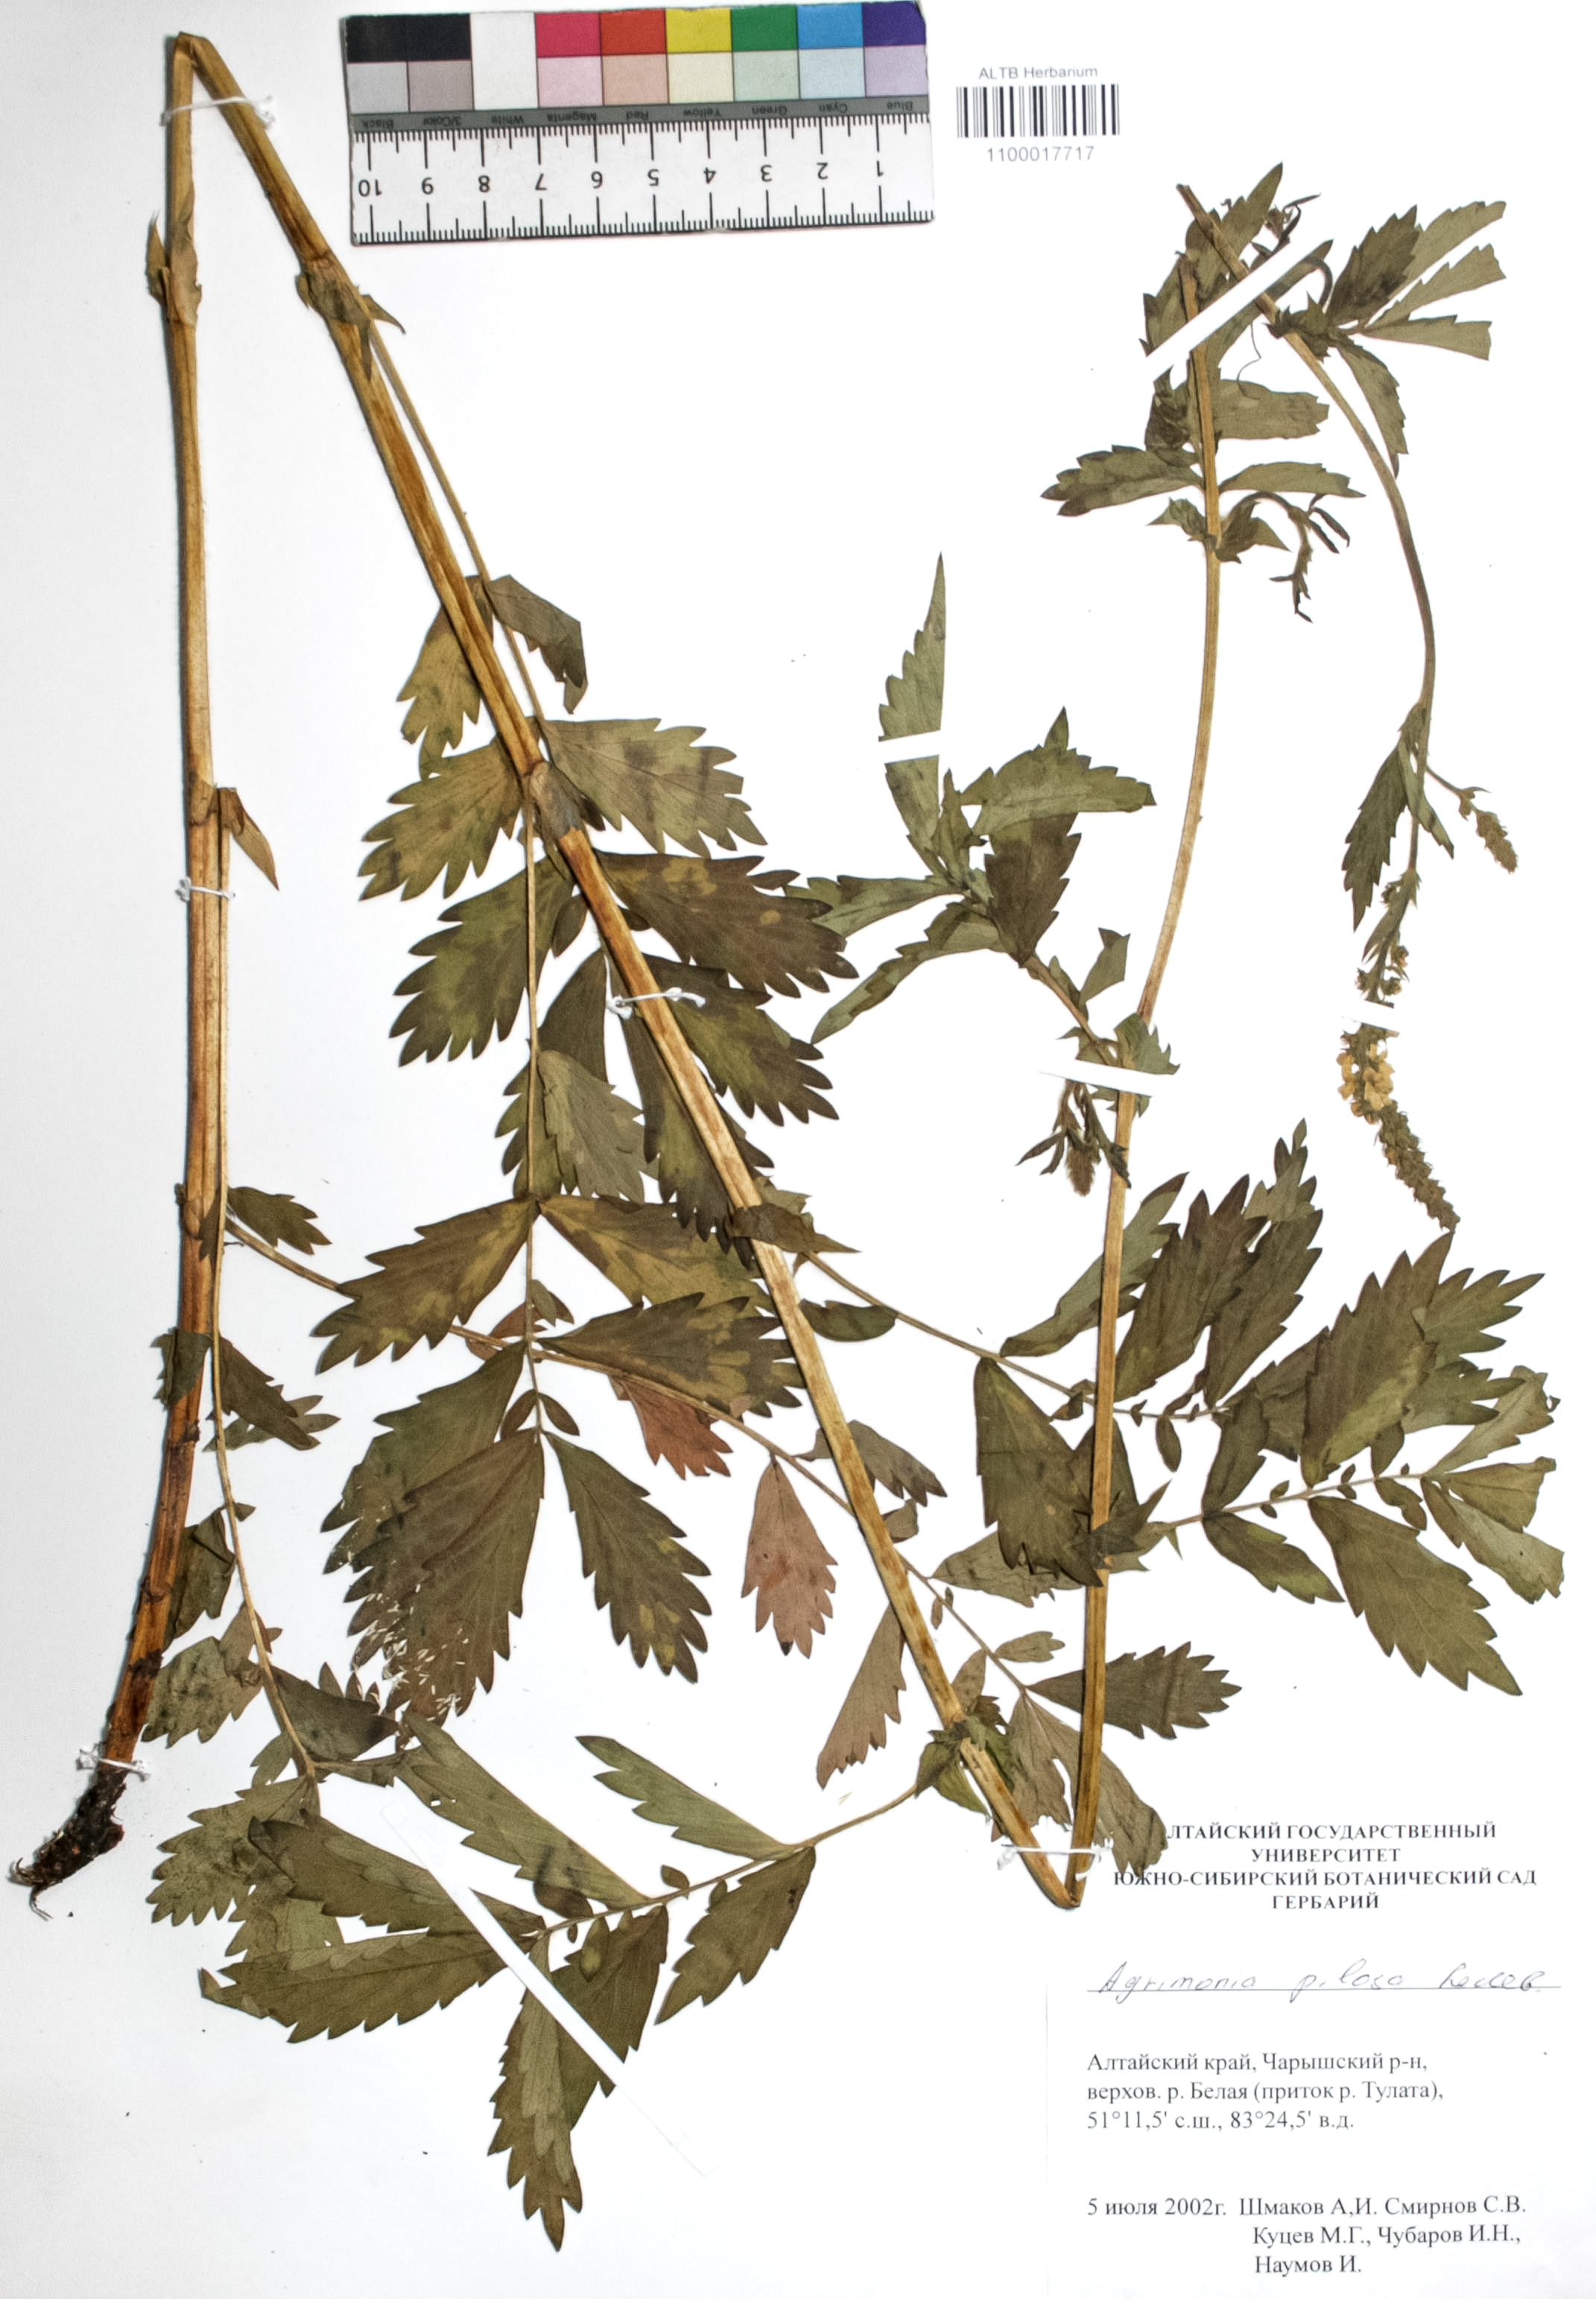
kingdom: Plantae
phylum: Tracheophyta
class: Magnoliopsida
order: Rosales
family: Rosaceae
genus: Agrimonia
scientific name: Agrimonia pilosa
